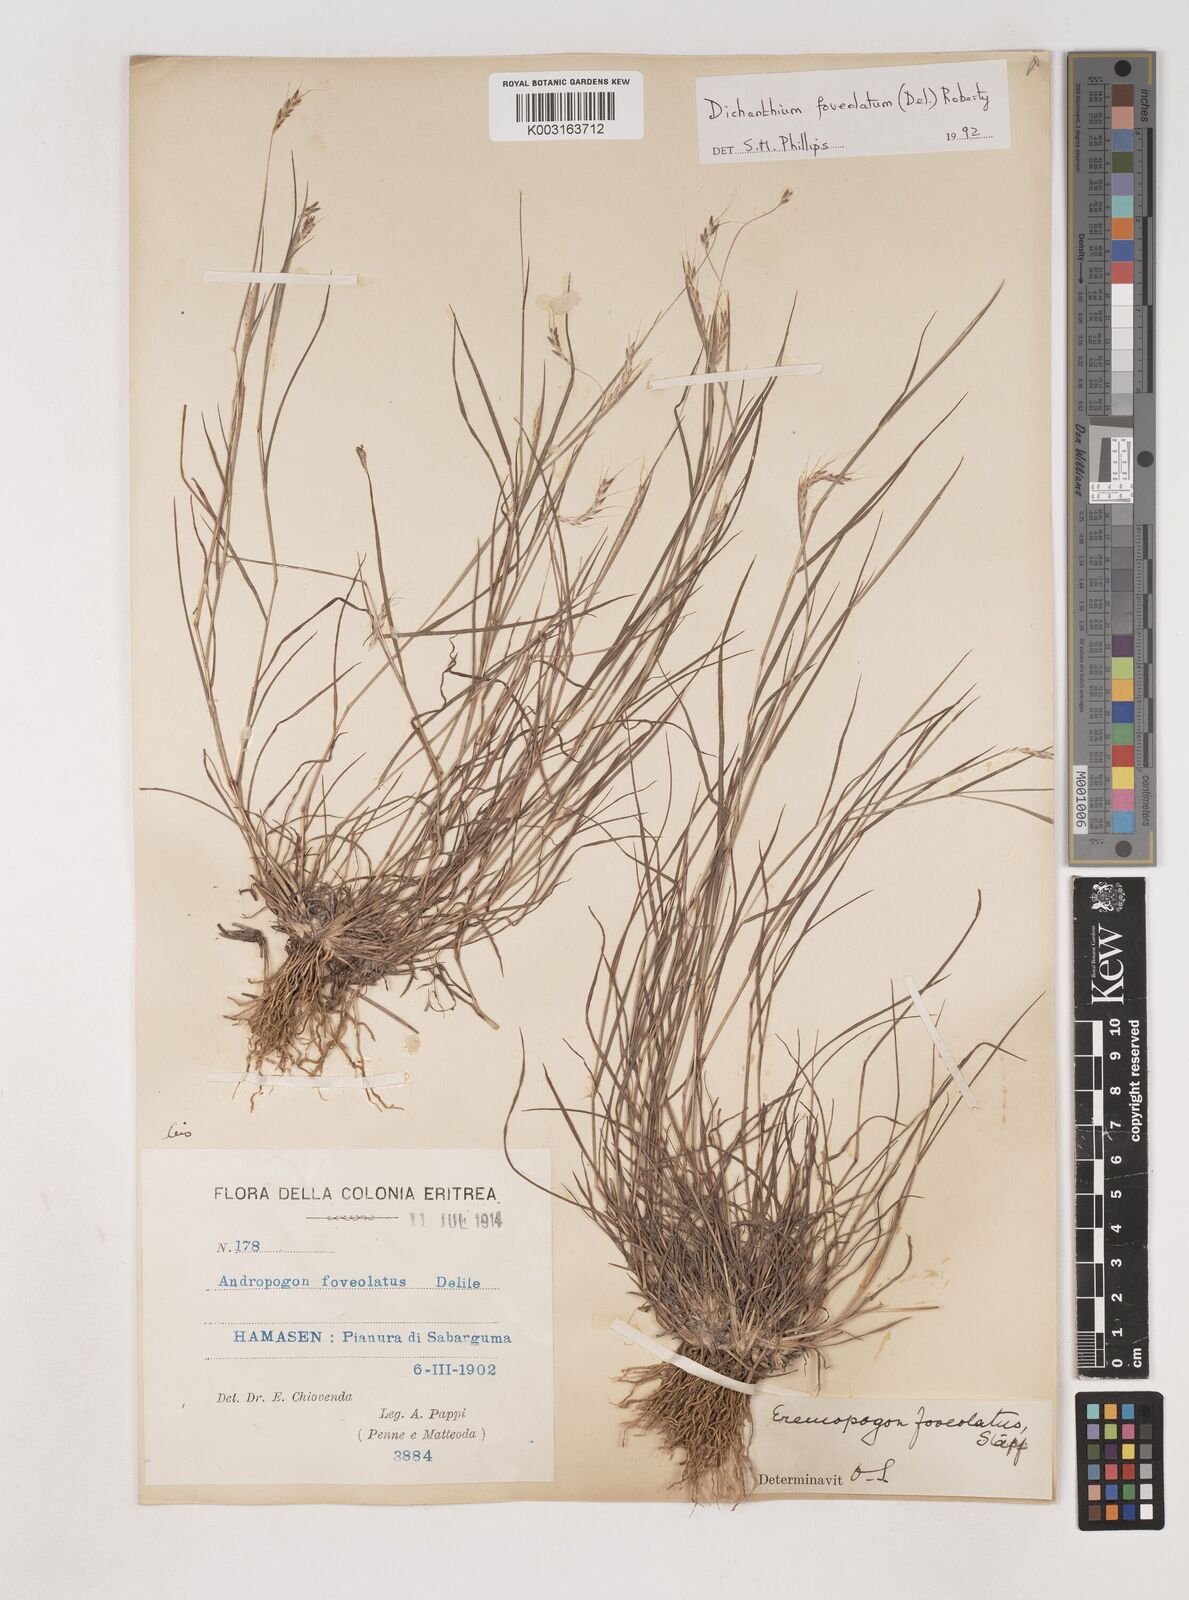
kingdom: Plantae
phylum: Tracheophyta
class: Liliopsida
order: Poales
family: Poaceae
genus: Dichanthium
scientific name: Dichanthium foveolatum
